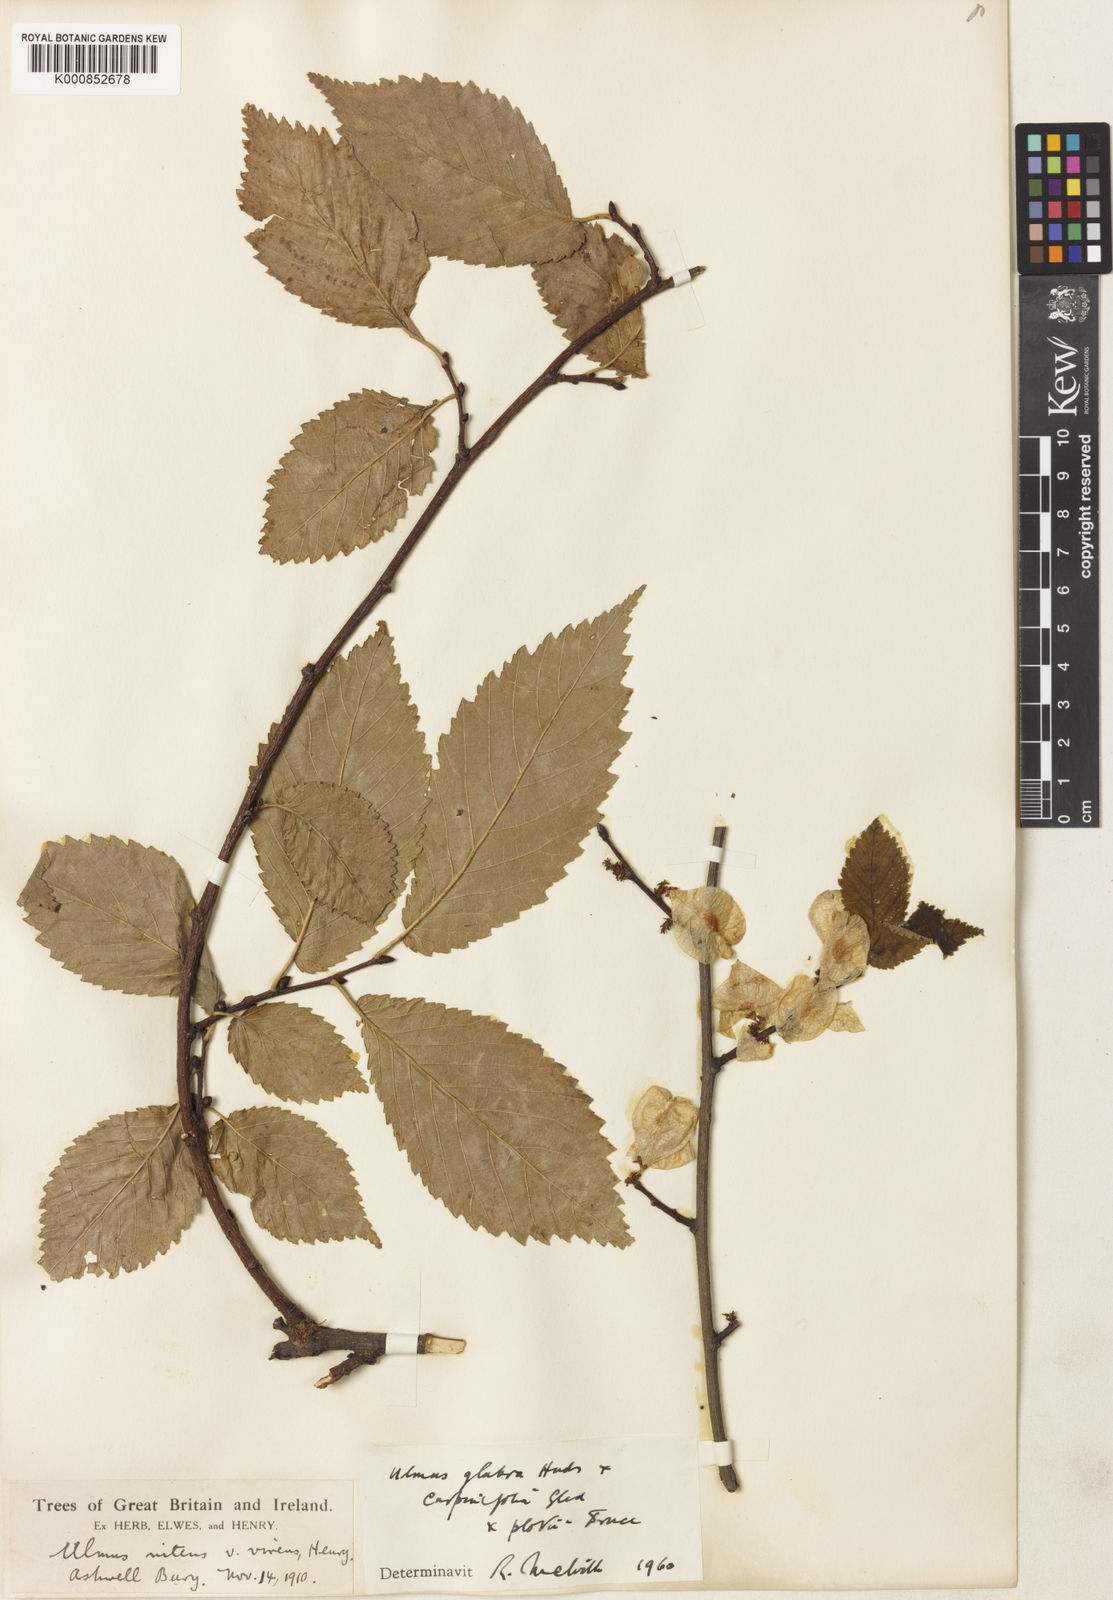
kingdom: Plantae
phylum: Tracheophyta
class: Magnoliopsida
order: Rosales
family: Ulmaceae
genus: Ulmus
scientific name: Ulmus glabra
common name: Wych elm
